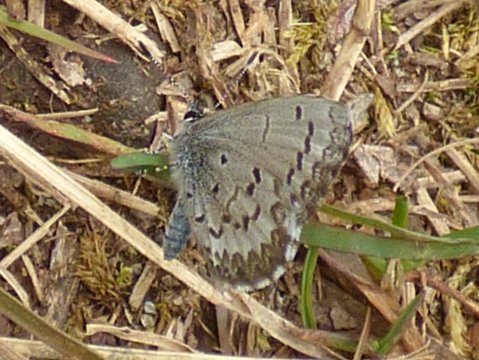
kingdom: Animalia
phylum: Arthropoda
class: Insecta
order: Lepidoptera
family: Lycaenidae
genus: Celastrina
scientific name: Celastrina ladon
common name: Spring Azure
